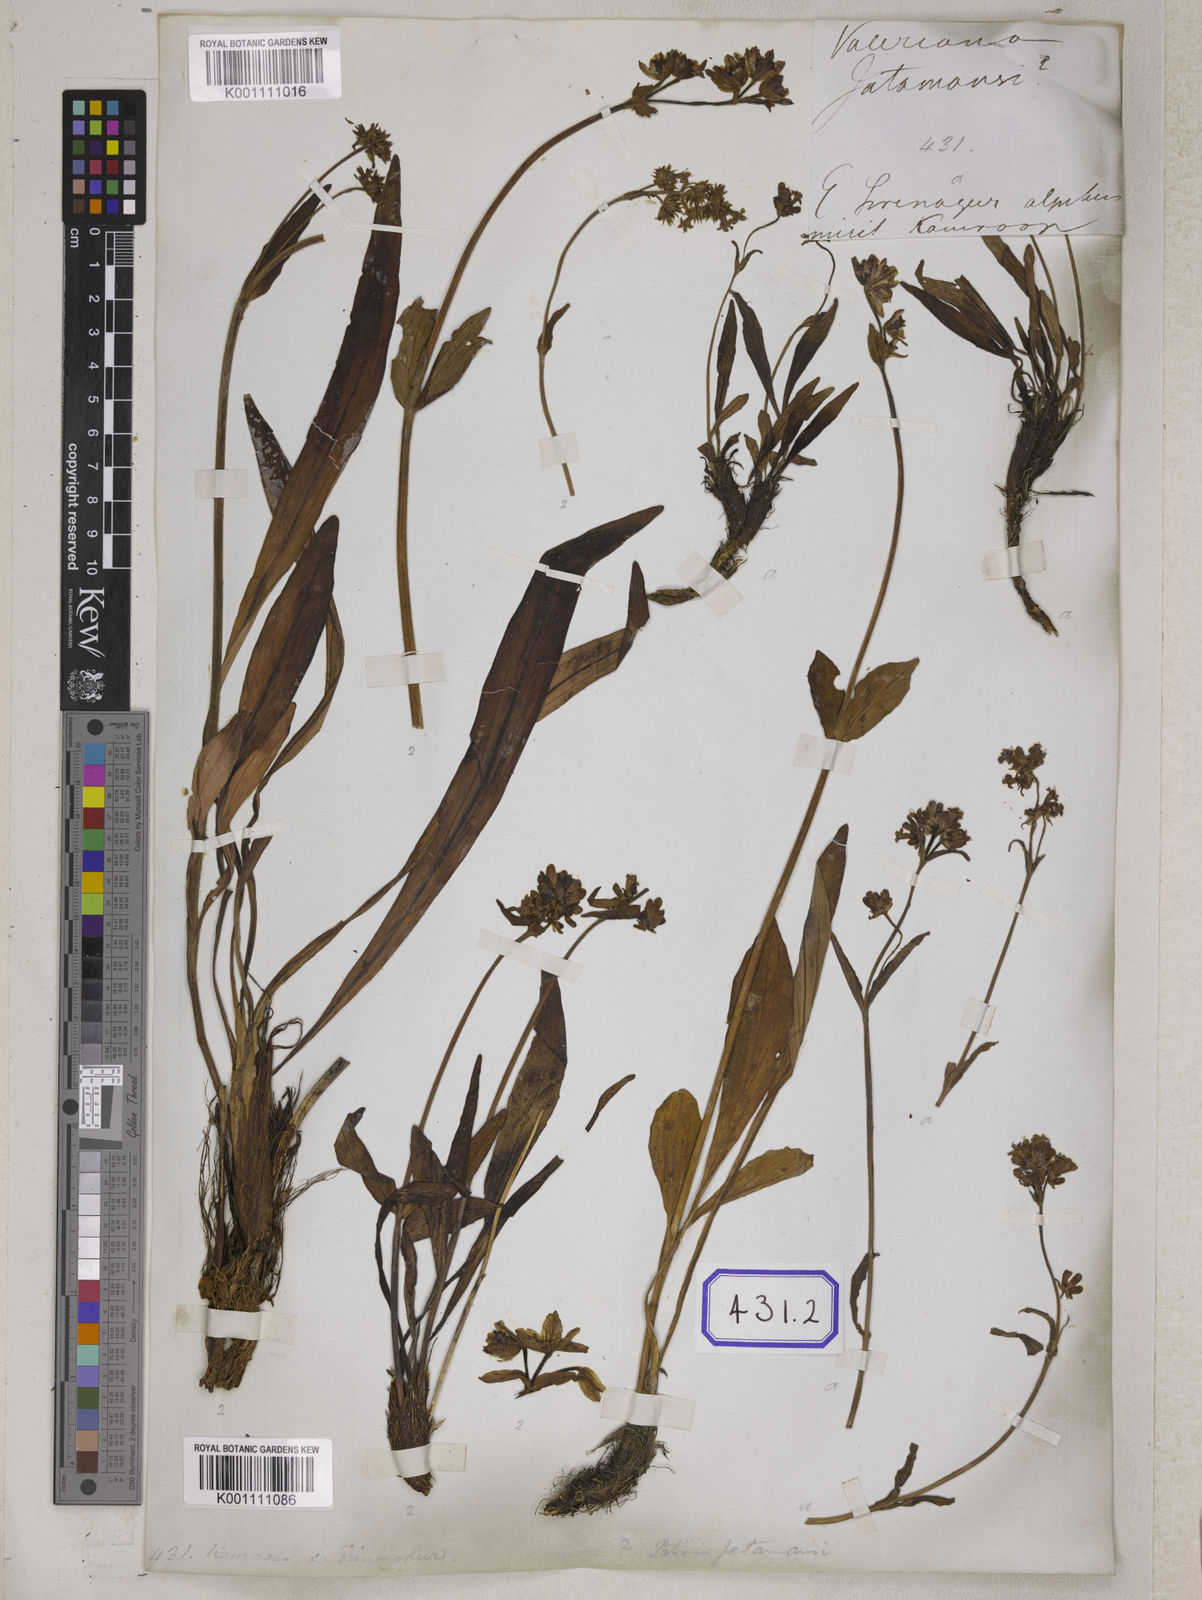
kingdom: Plantae
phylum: Tracheophyta
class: Magnoliopsida
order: Dipsacales
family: Caprifoliaceae
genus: Nardostachys
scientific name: Nardostachys jatamansi
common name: Indian nard
